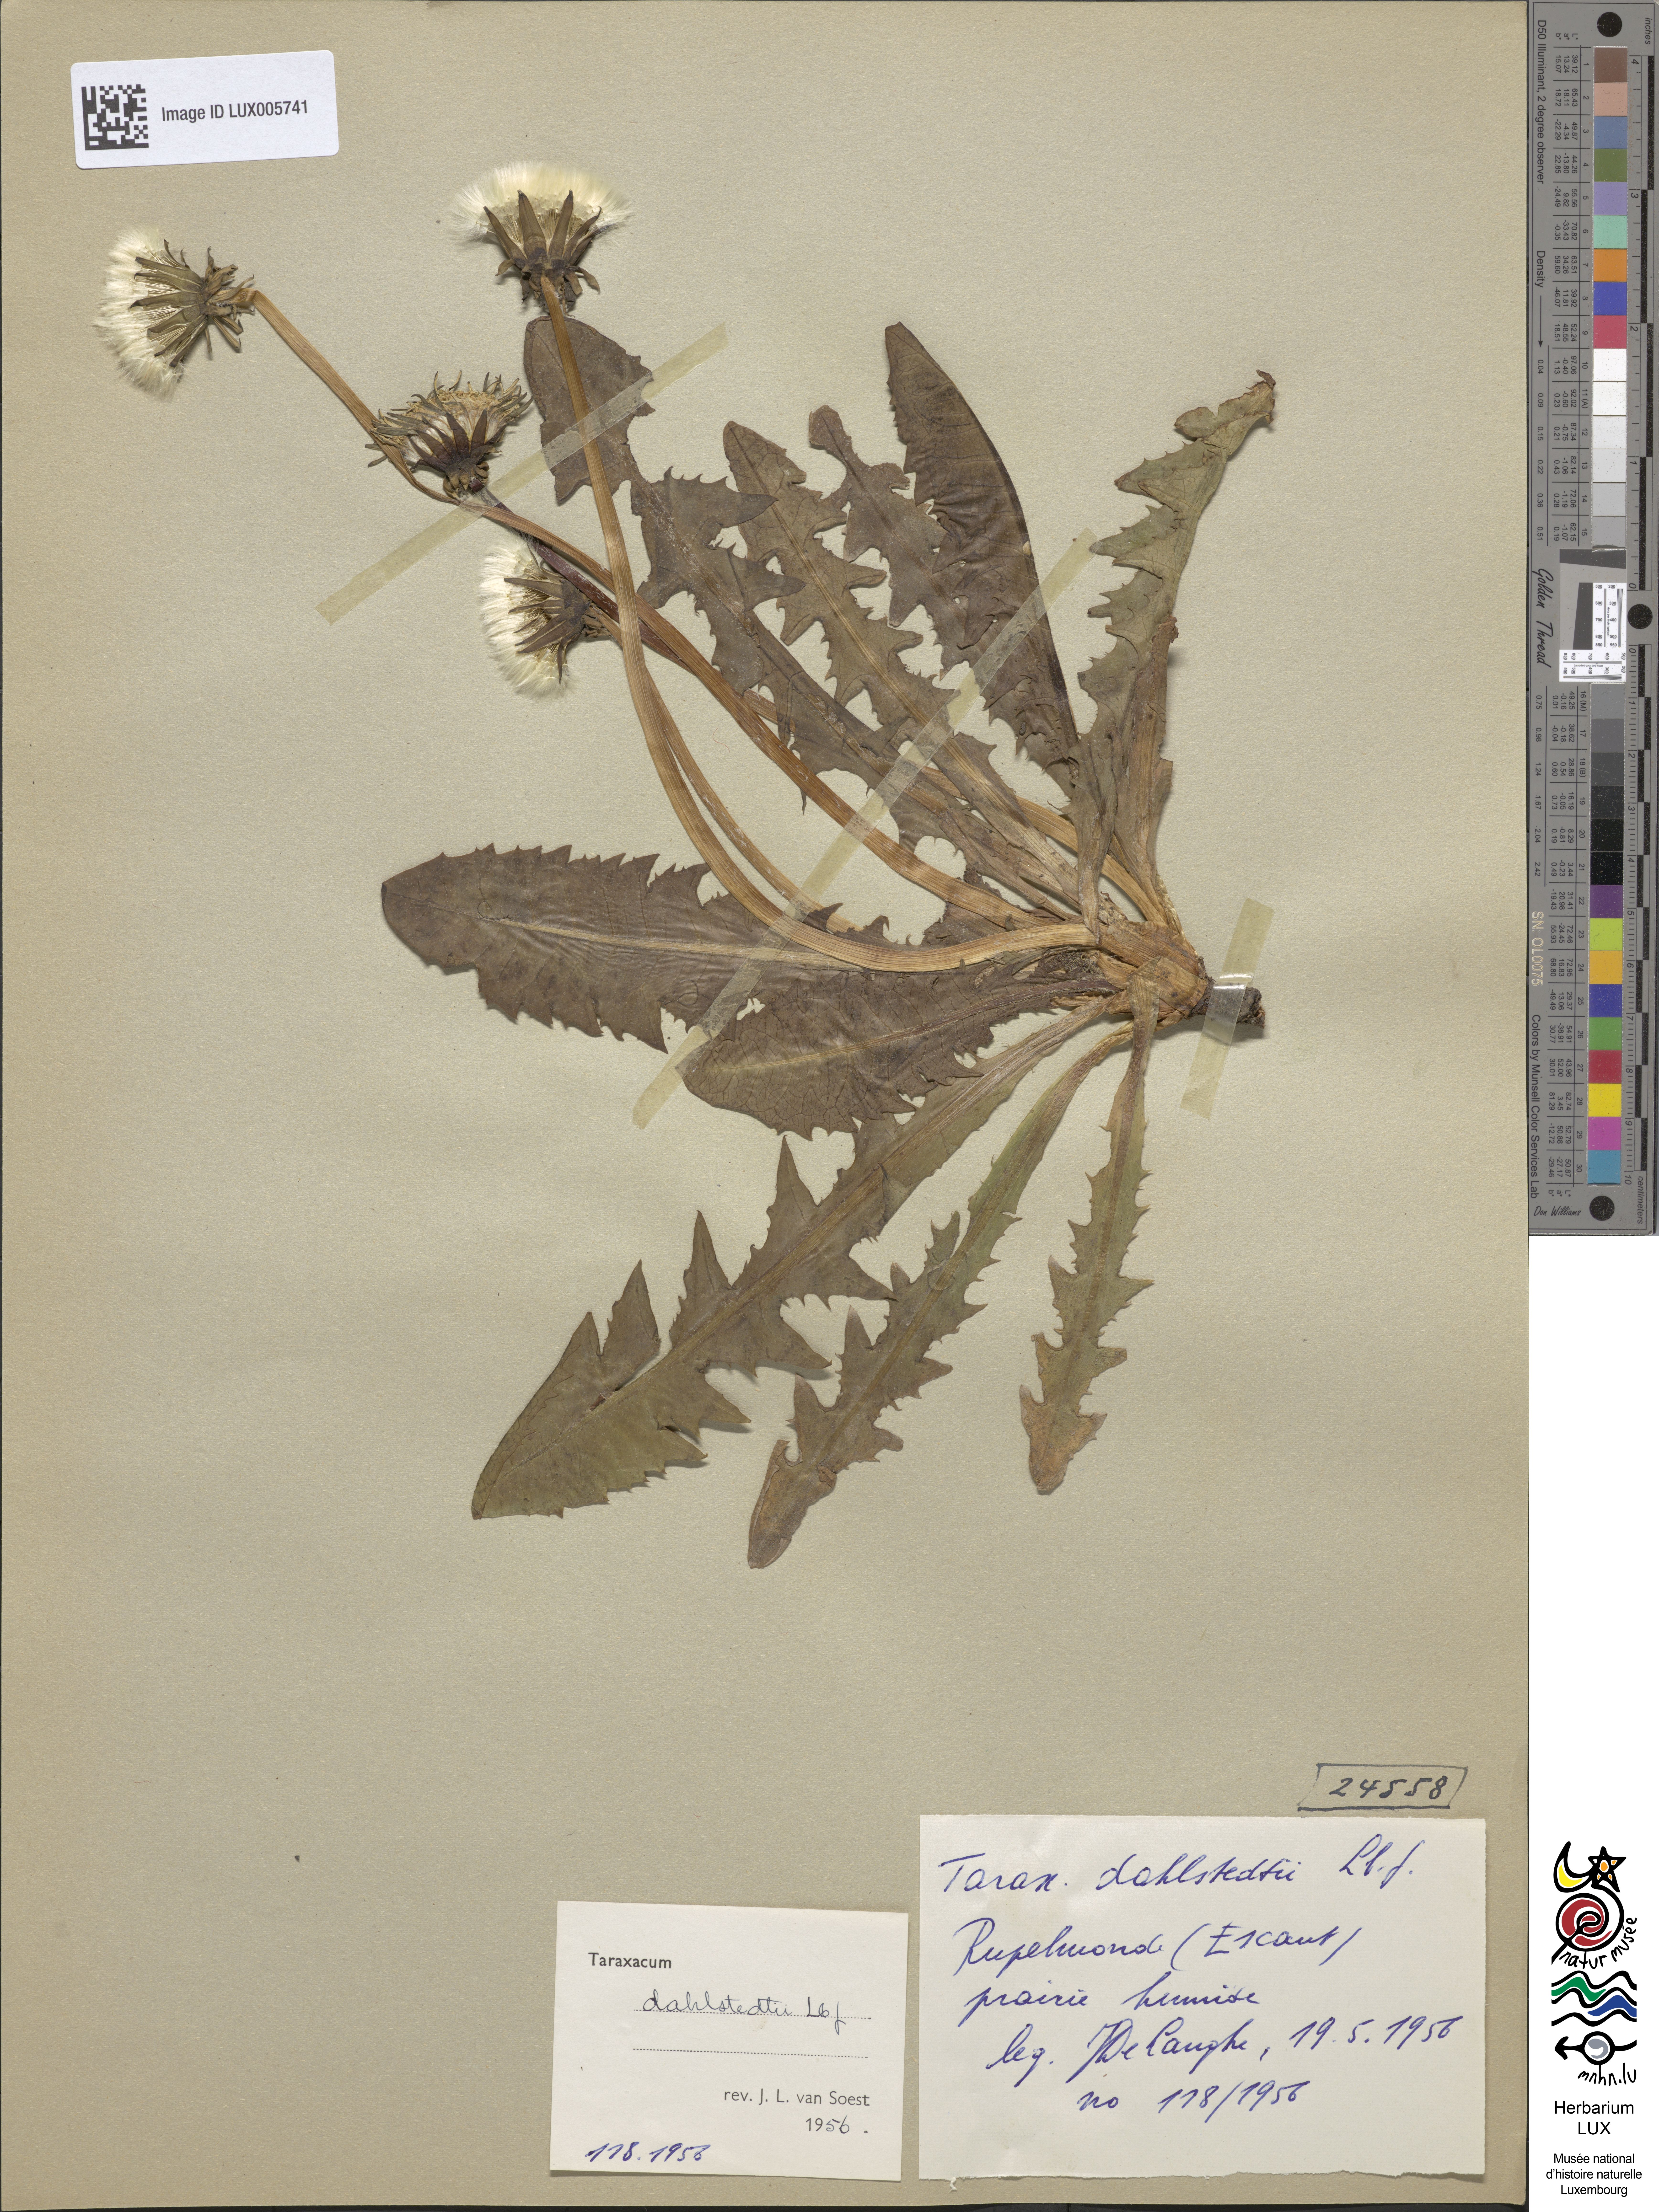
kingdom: Plantae
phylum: Tracheophyta
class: Magnoliopsida
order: Asterales
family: Asteraceae
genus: Taraxacum
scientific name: Taraxacum stenoglossum
